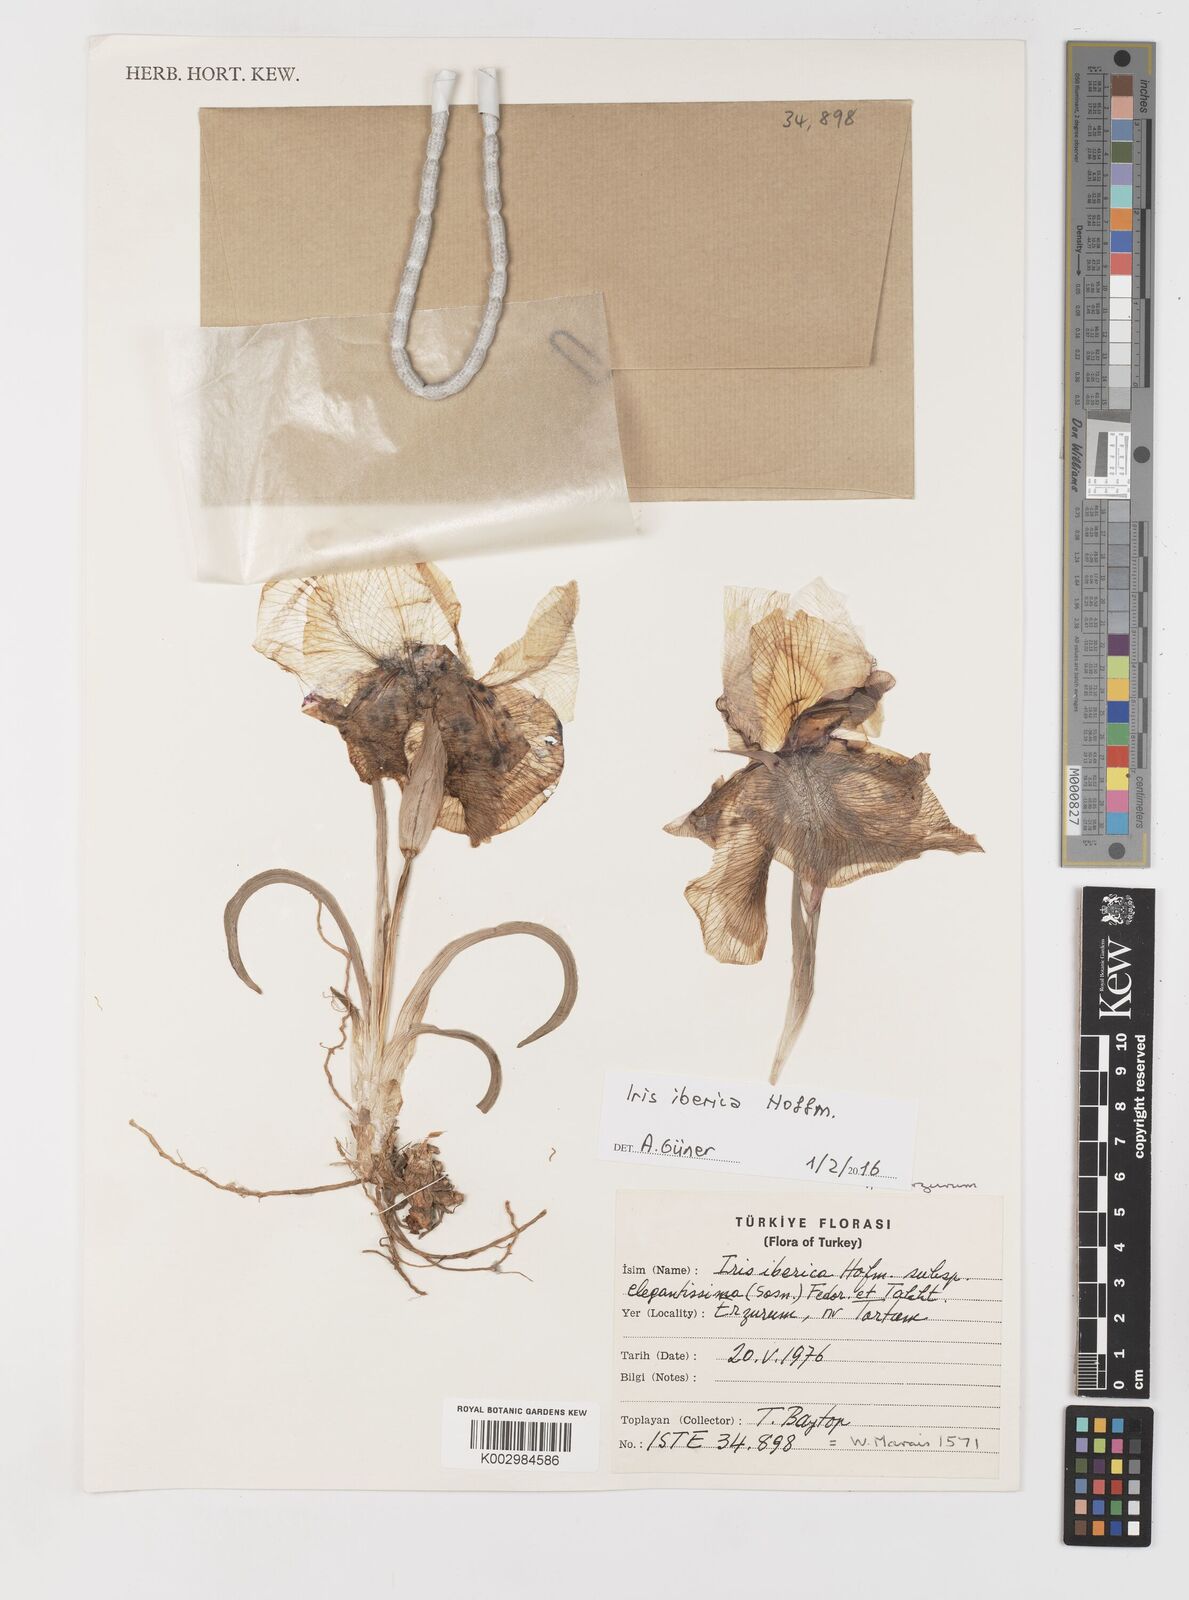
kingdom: Plantae
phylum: Tracheophyta
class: Liliopsida
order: Asparagales
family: Iridaceae
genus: Iris
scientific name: Iris iberica
